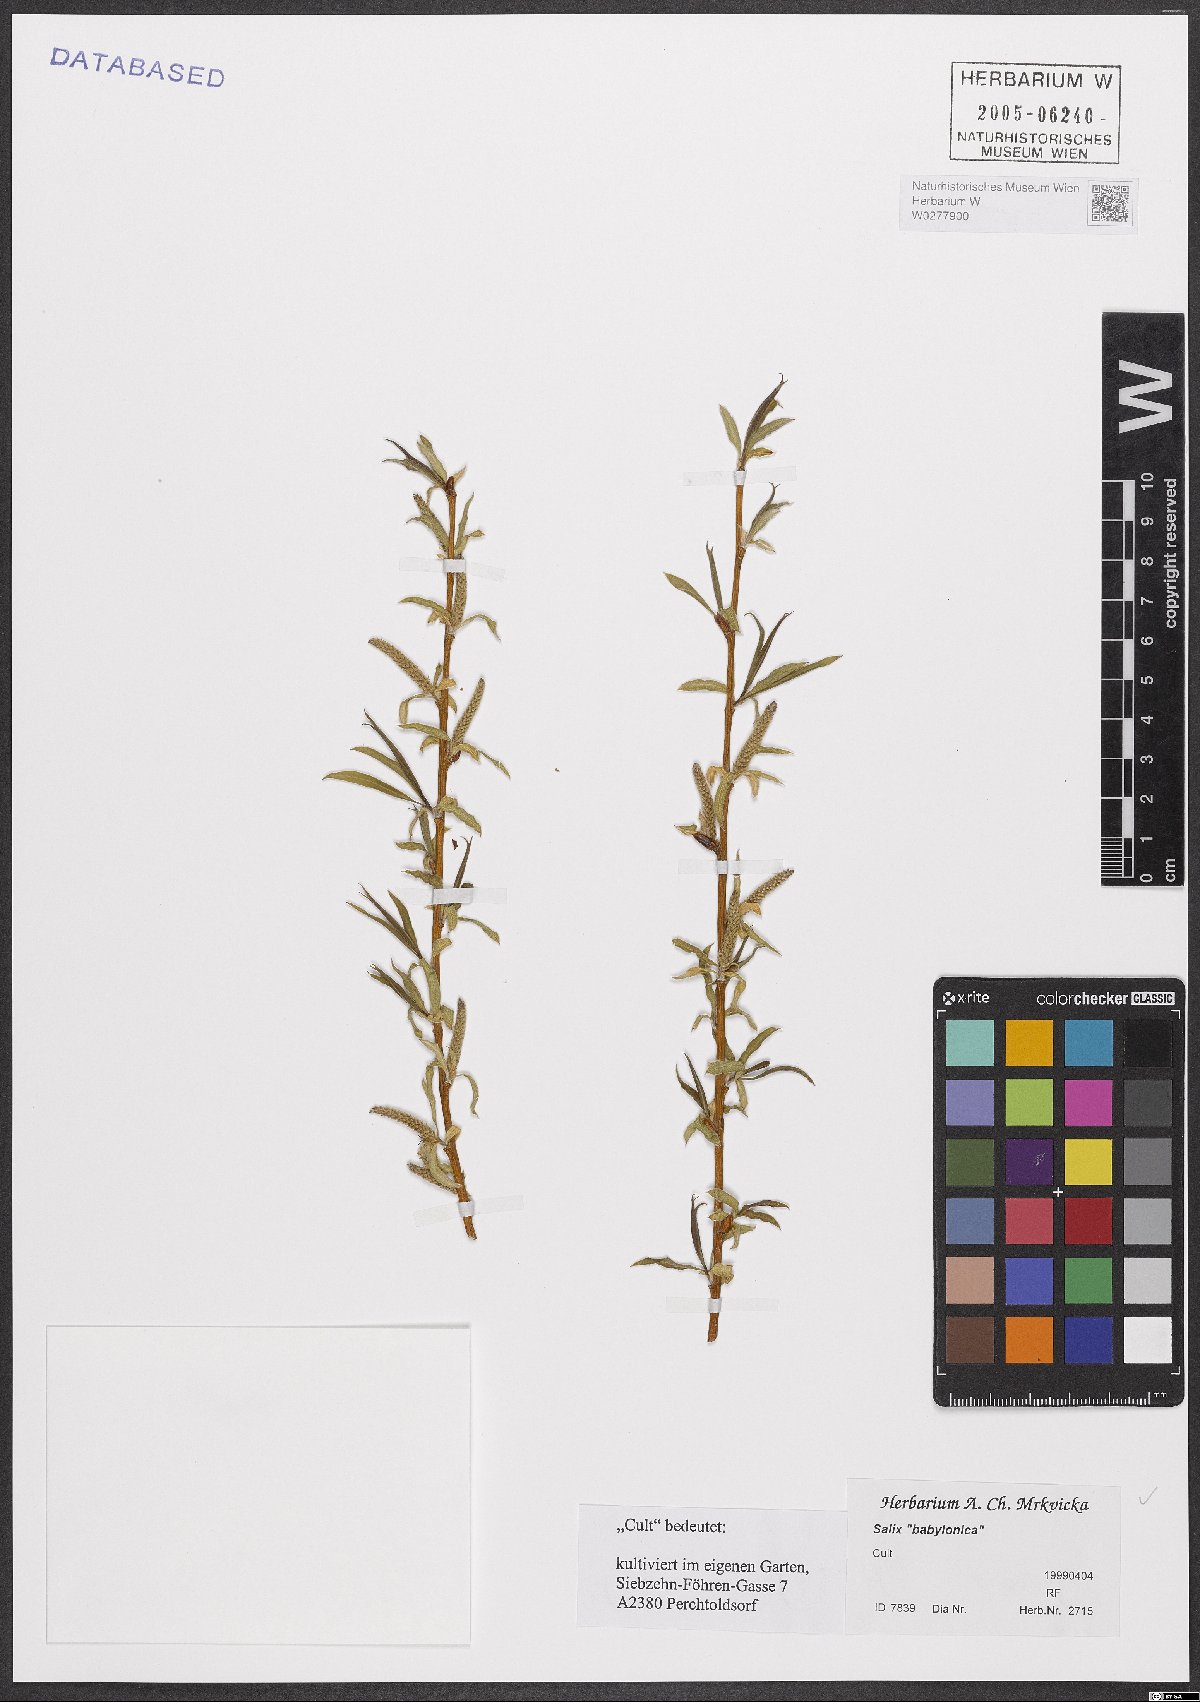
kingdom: Plantae
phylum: Tracheophyta
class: Magnoliopsida
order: Malpighiales
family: Salicaceae
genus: Salix
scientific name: Salix babylonica
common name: Weeping willow
